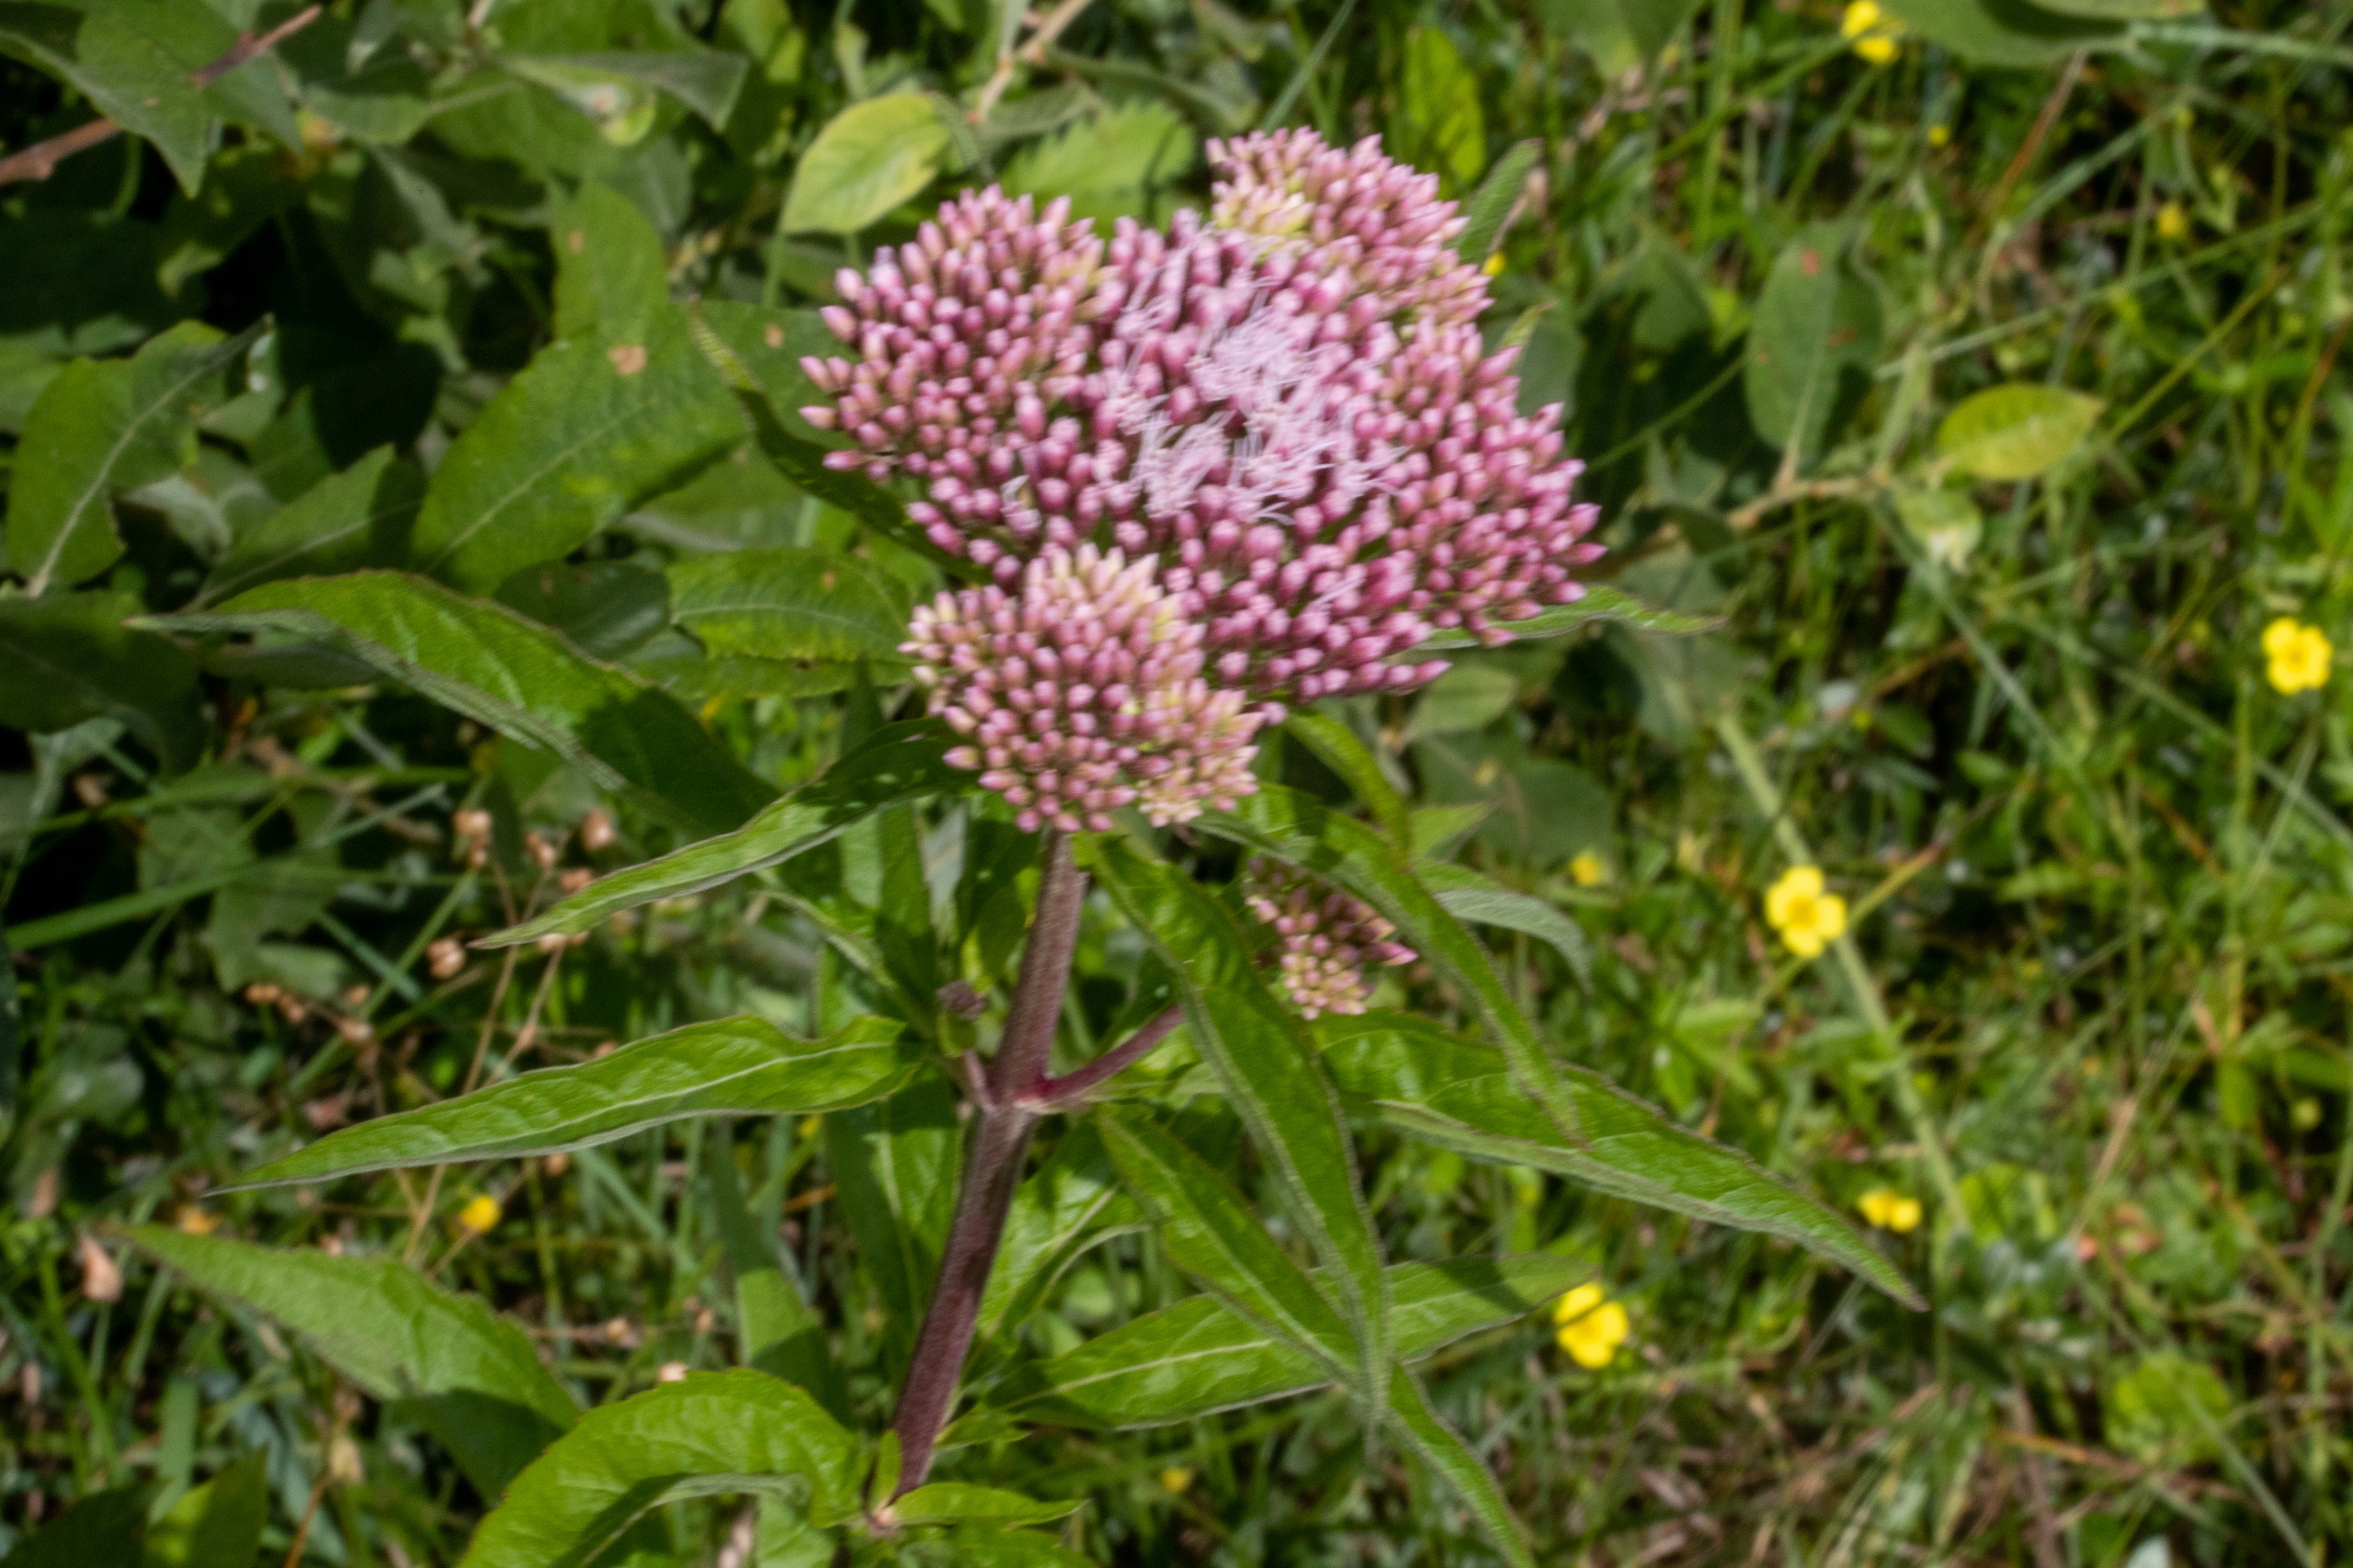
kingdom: Plantae
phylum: Tracheophyta
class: Magnoliopsida
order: Asterales
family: Asteraceae
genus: Eupatorium
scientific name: Eupatorium cannabinum
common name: Hjortetrøst
